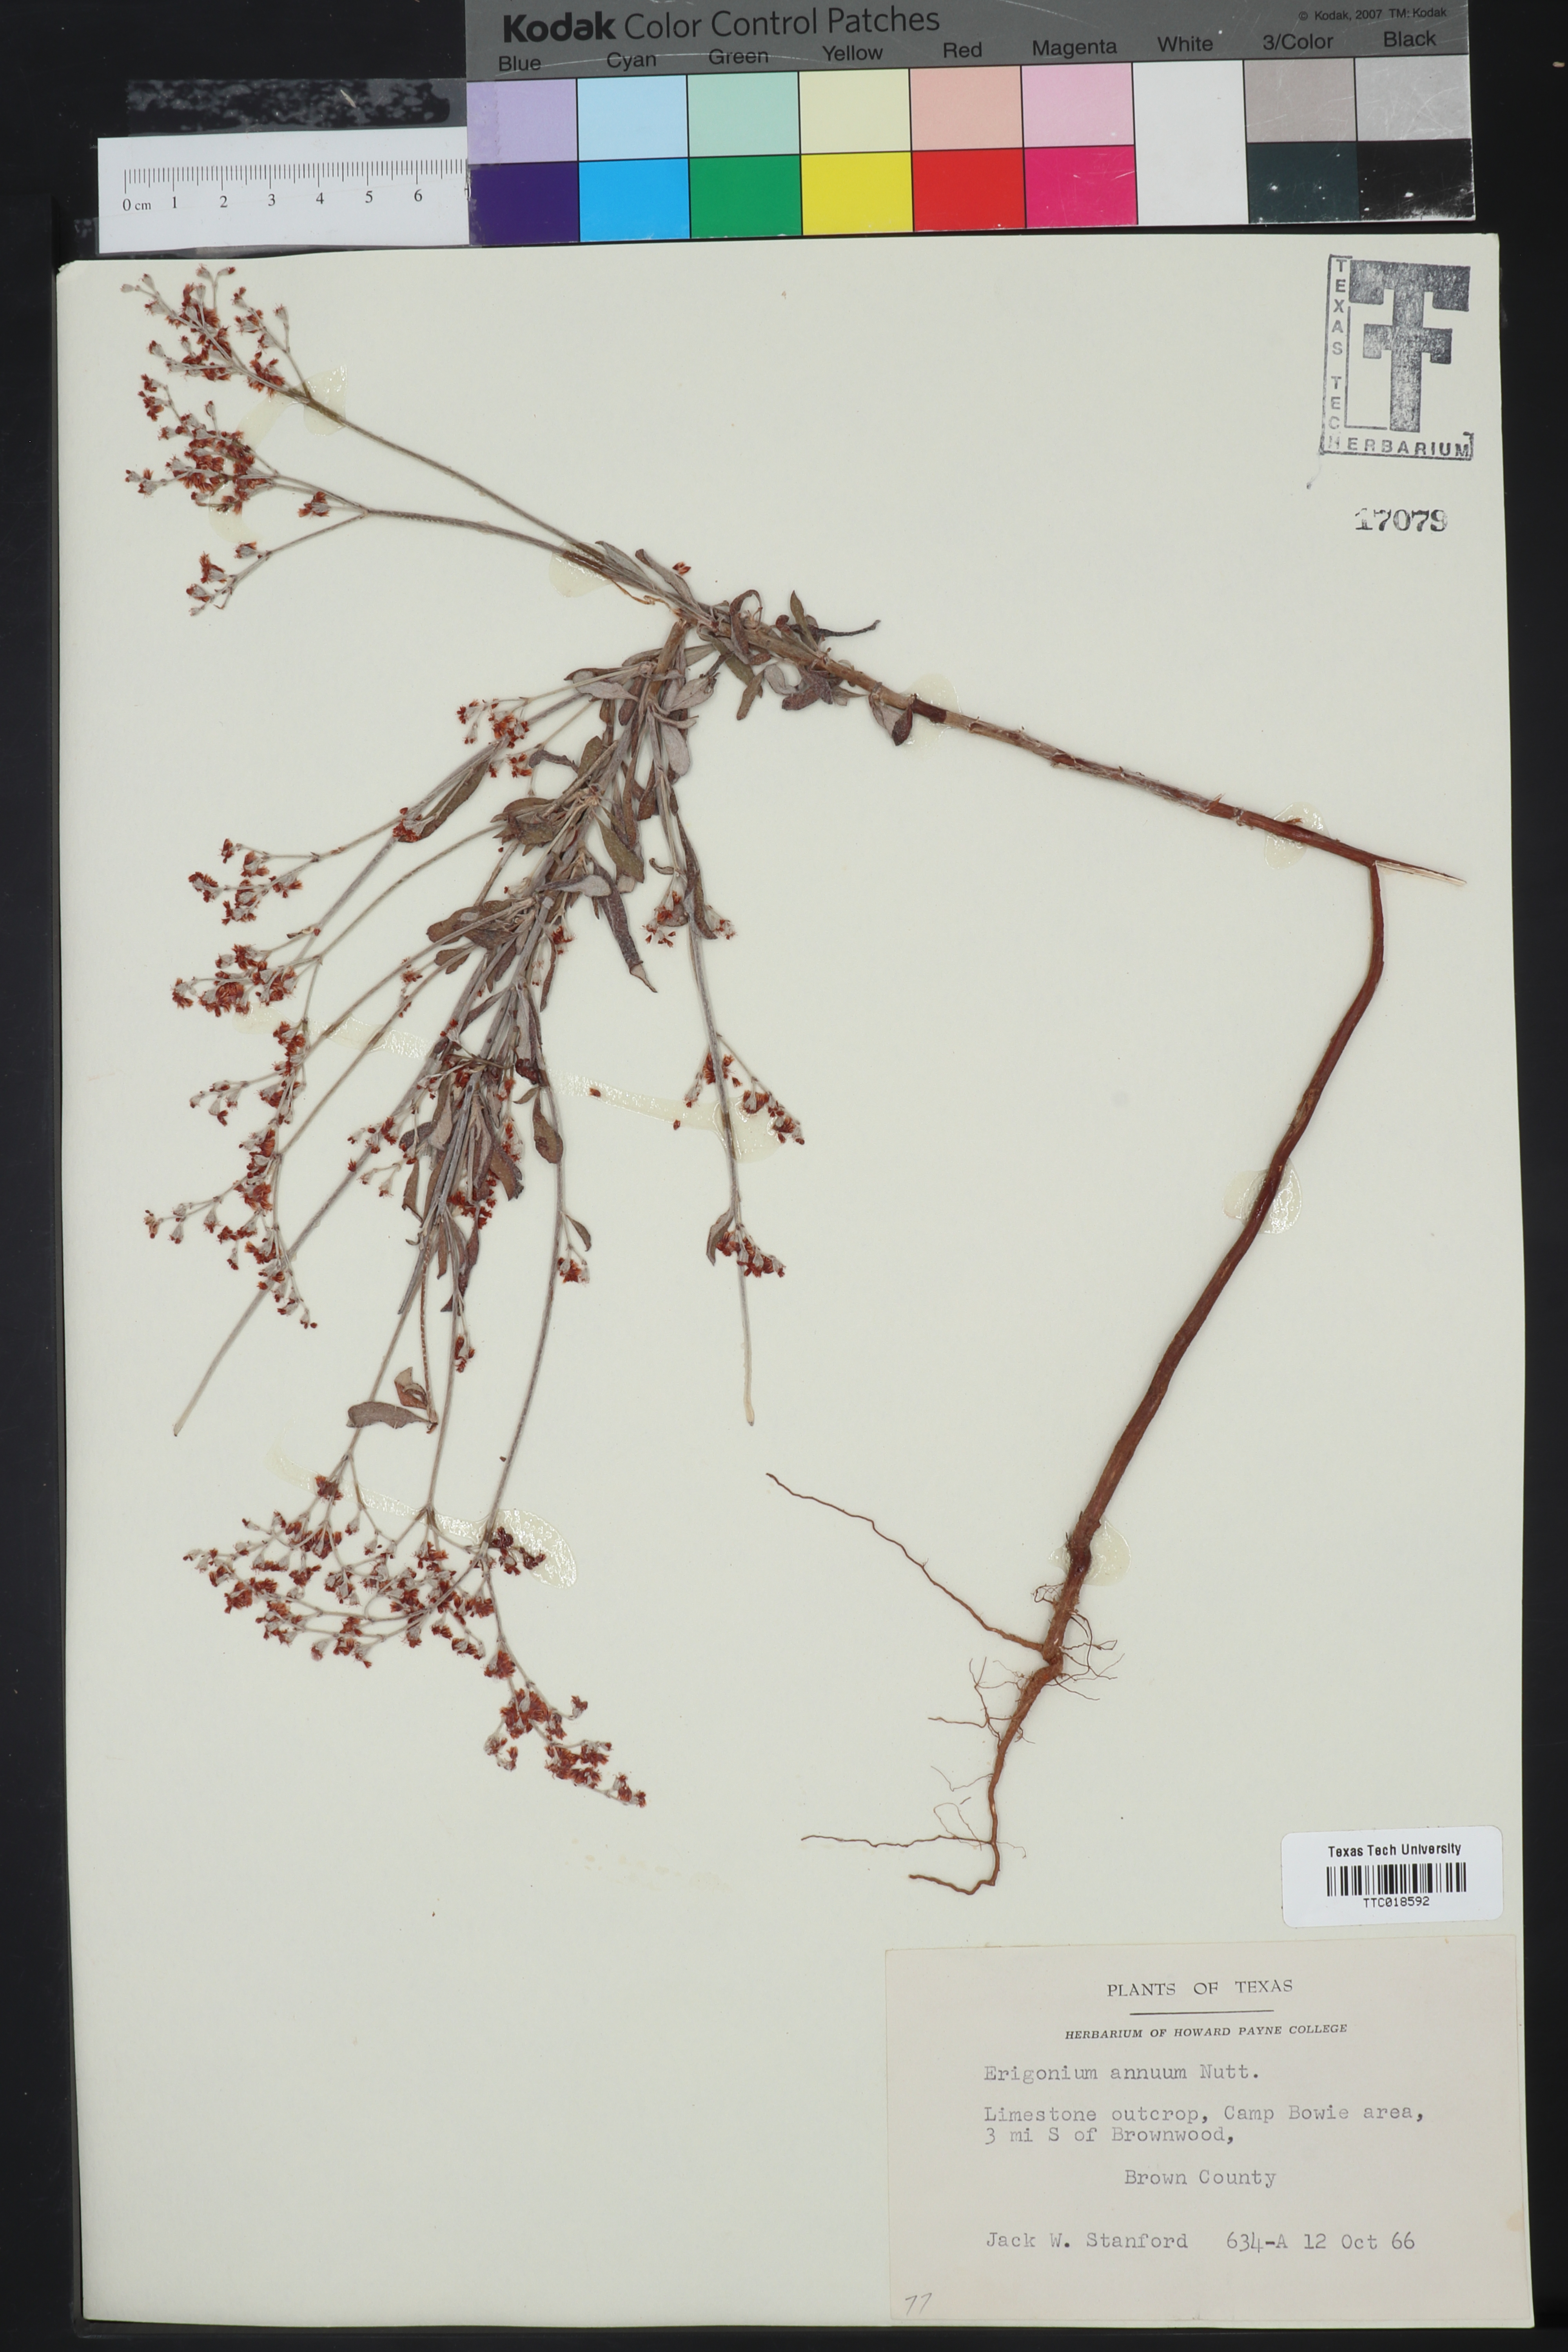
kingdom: Plantae
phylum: Tracheophyta
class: Magnoliopsida
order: Caryophyllales
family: Polygonaceae
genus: Eriogonum
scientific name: Eriogonum annuum
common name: Annual wild buckwheat
